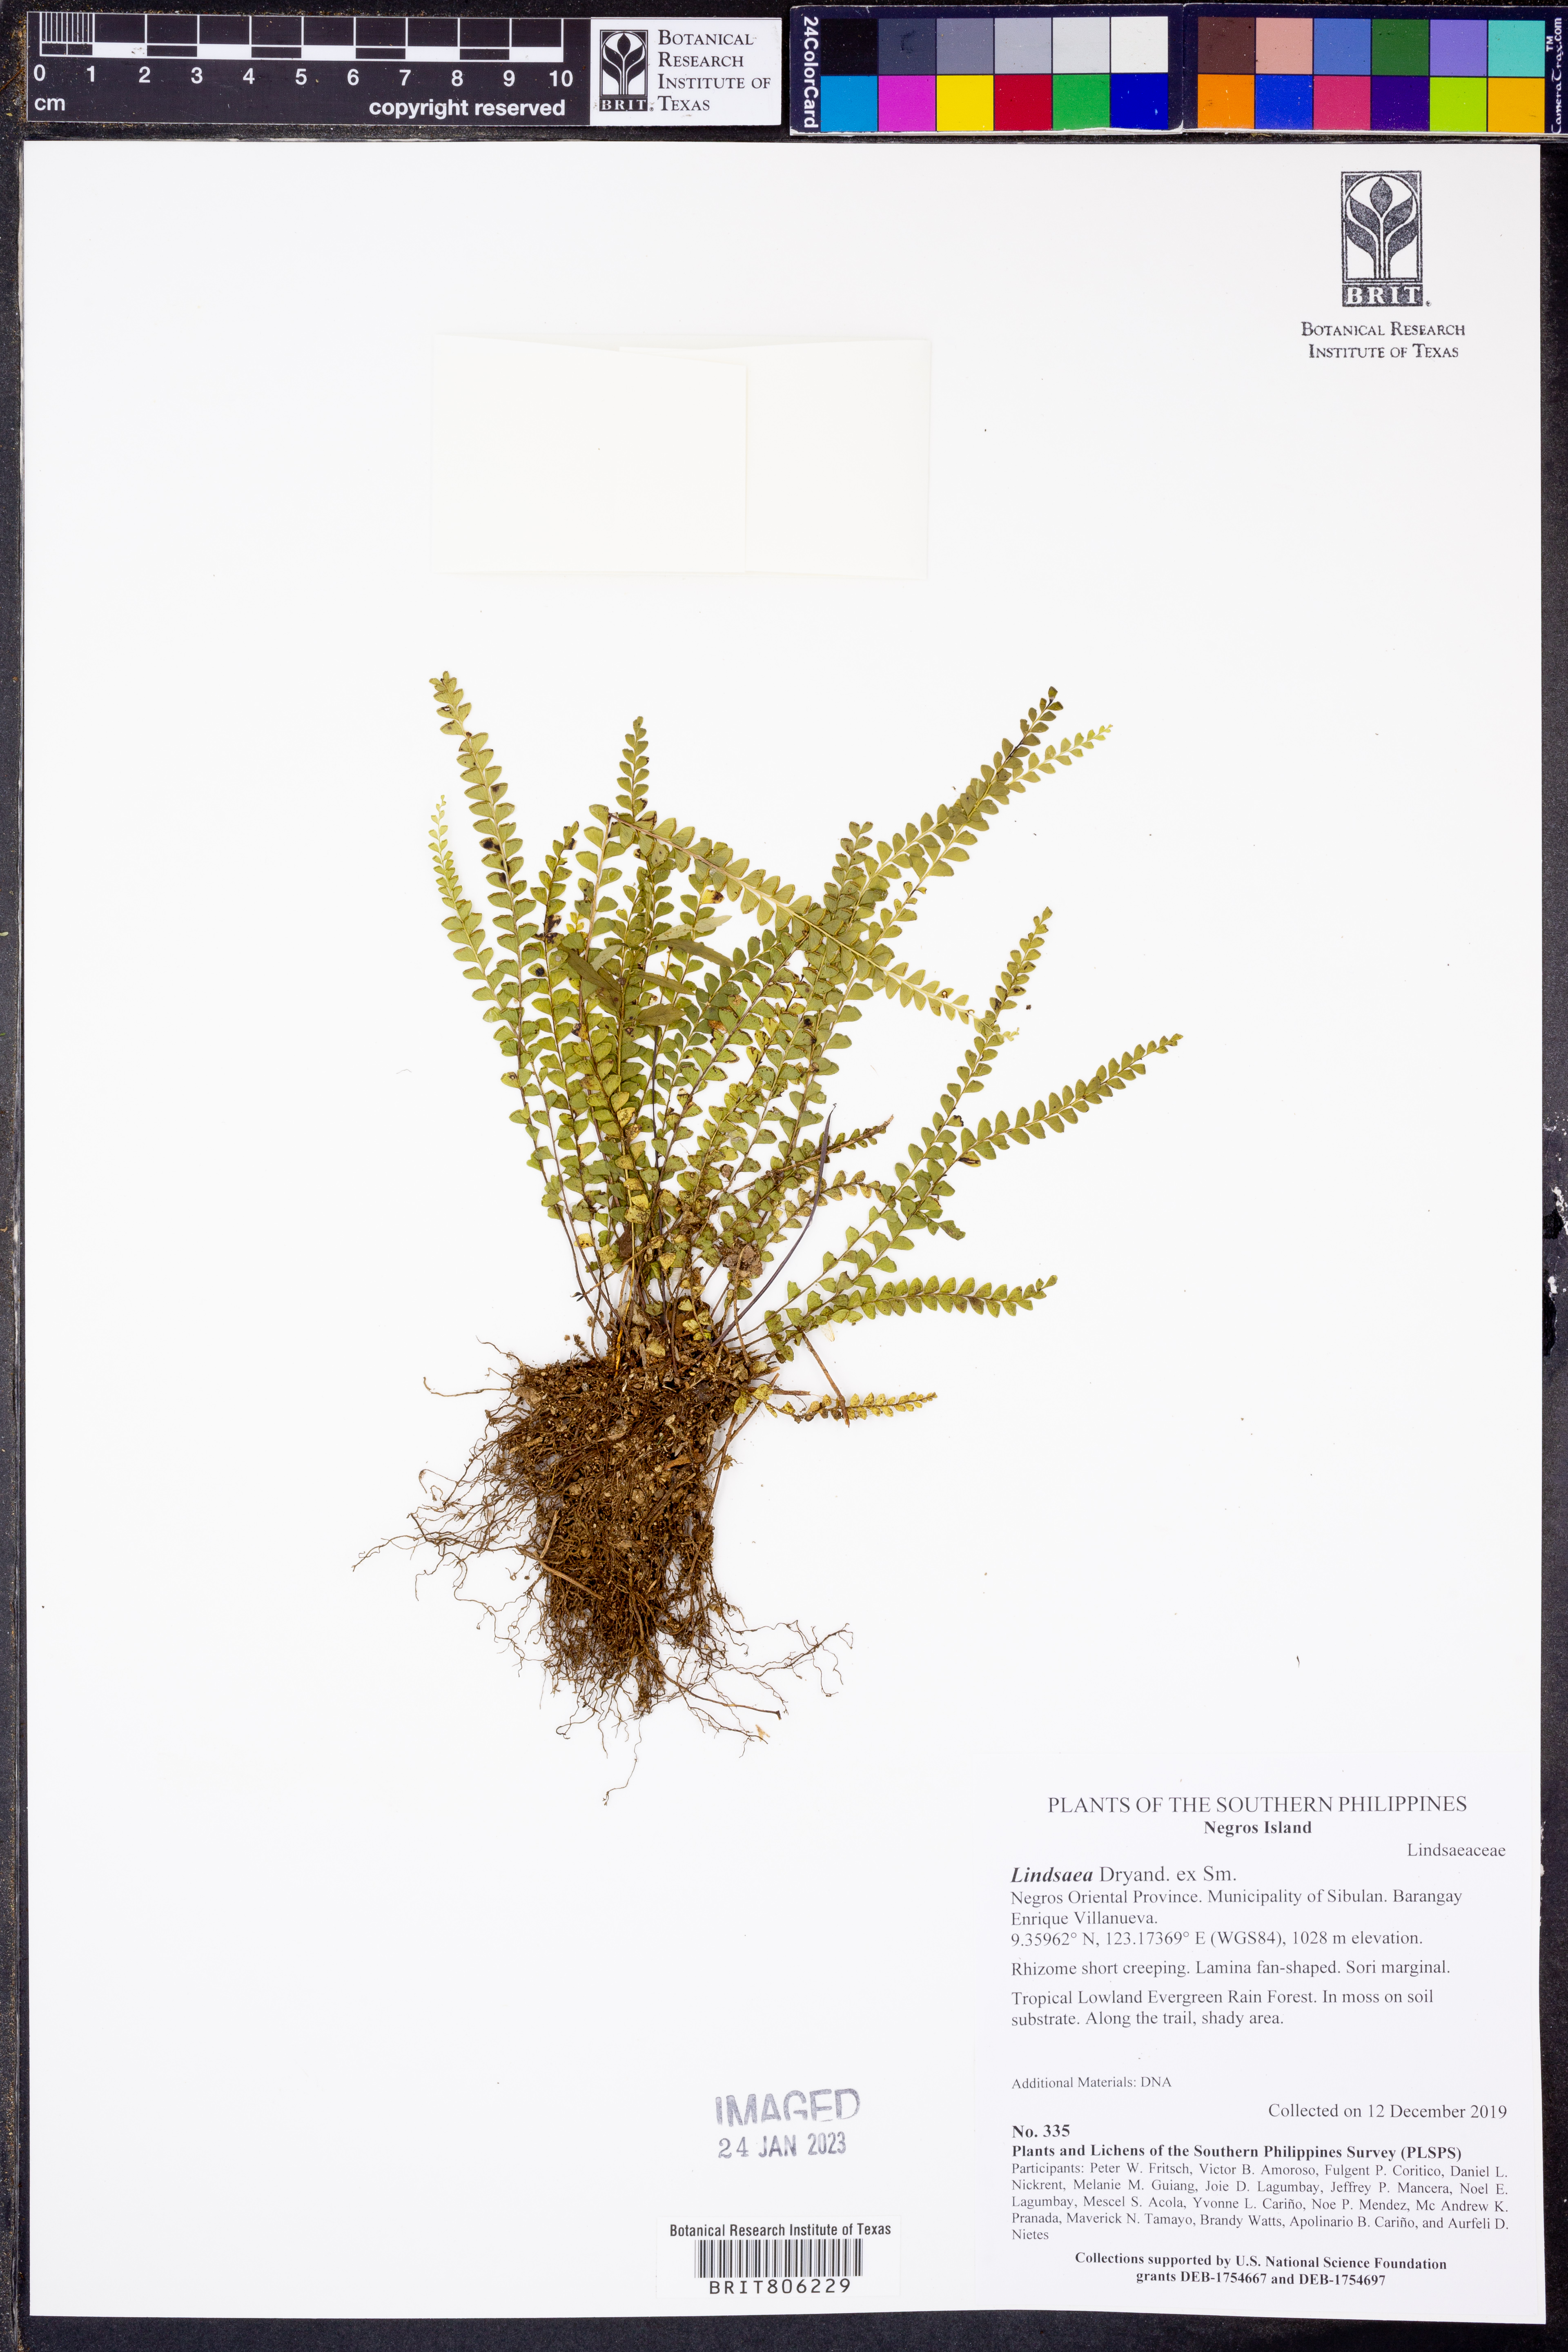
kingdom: Plantae
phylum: Tracheophyta
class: Polypodiopsida
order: Polypodiales
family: Lindsaeaceae
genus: Lindsaea
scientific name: Lindsaea
